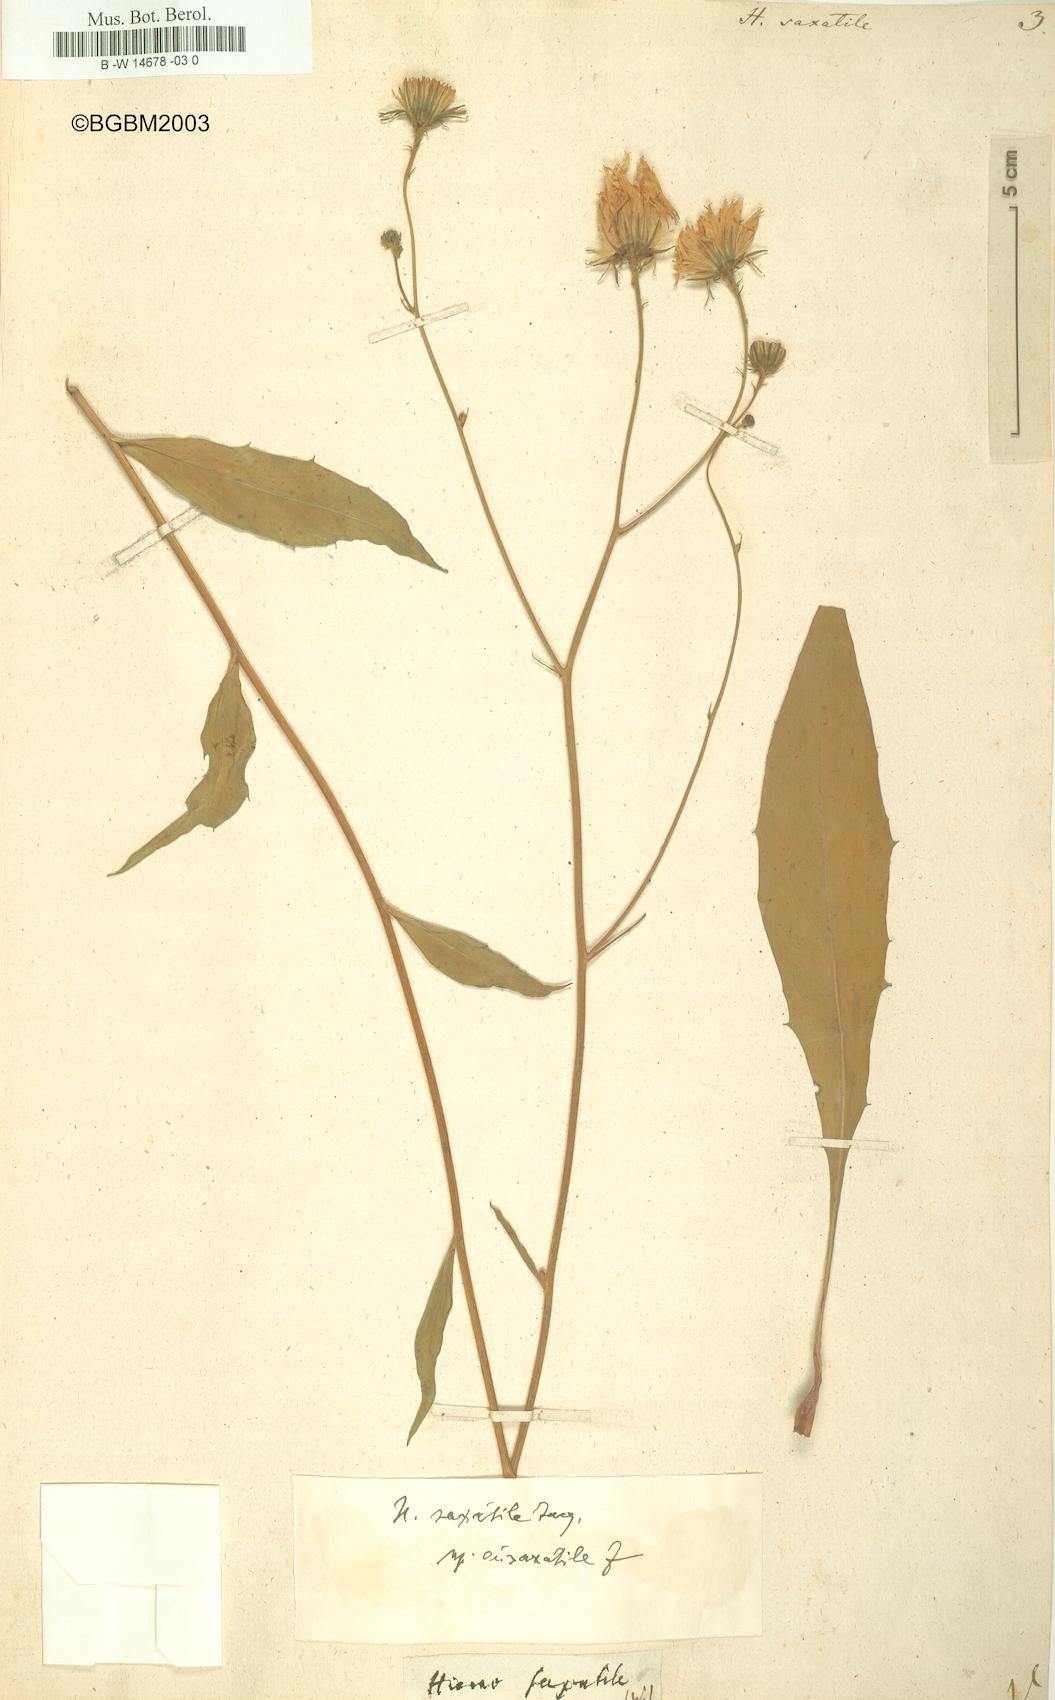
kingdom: Plantae
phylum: Tracheophyta
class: Magnoliopsida
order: Asterales
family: Asteraceae
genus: Hieracium
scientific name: Hieracium saxatile
